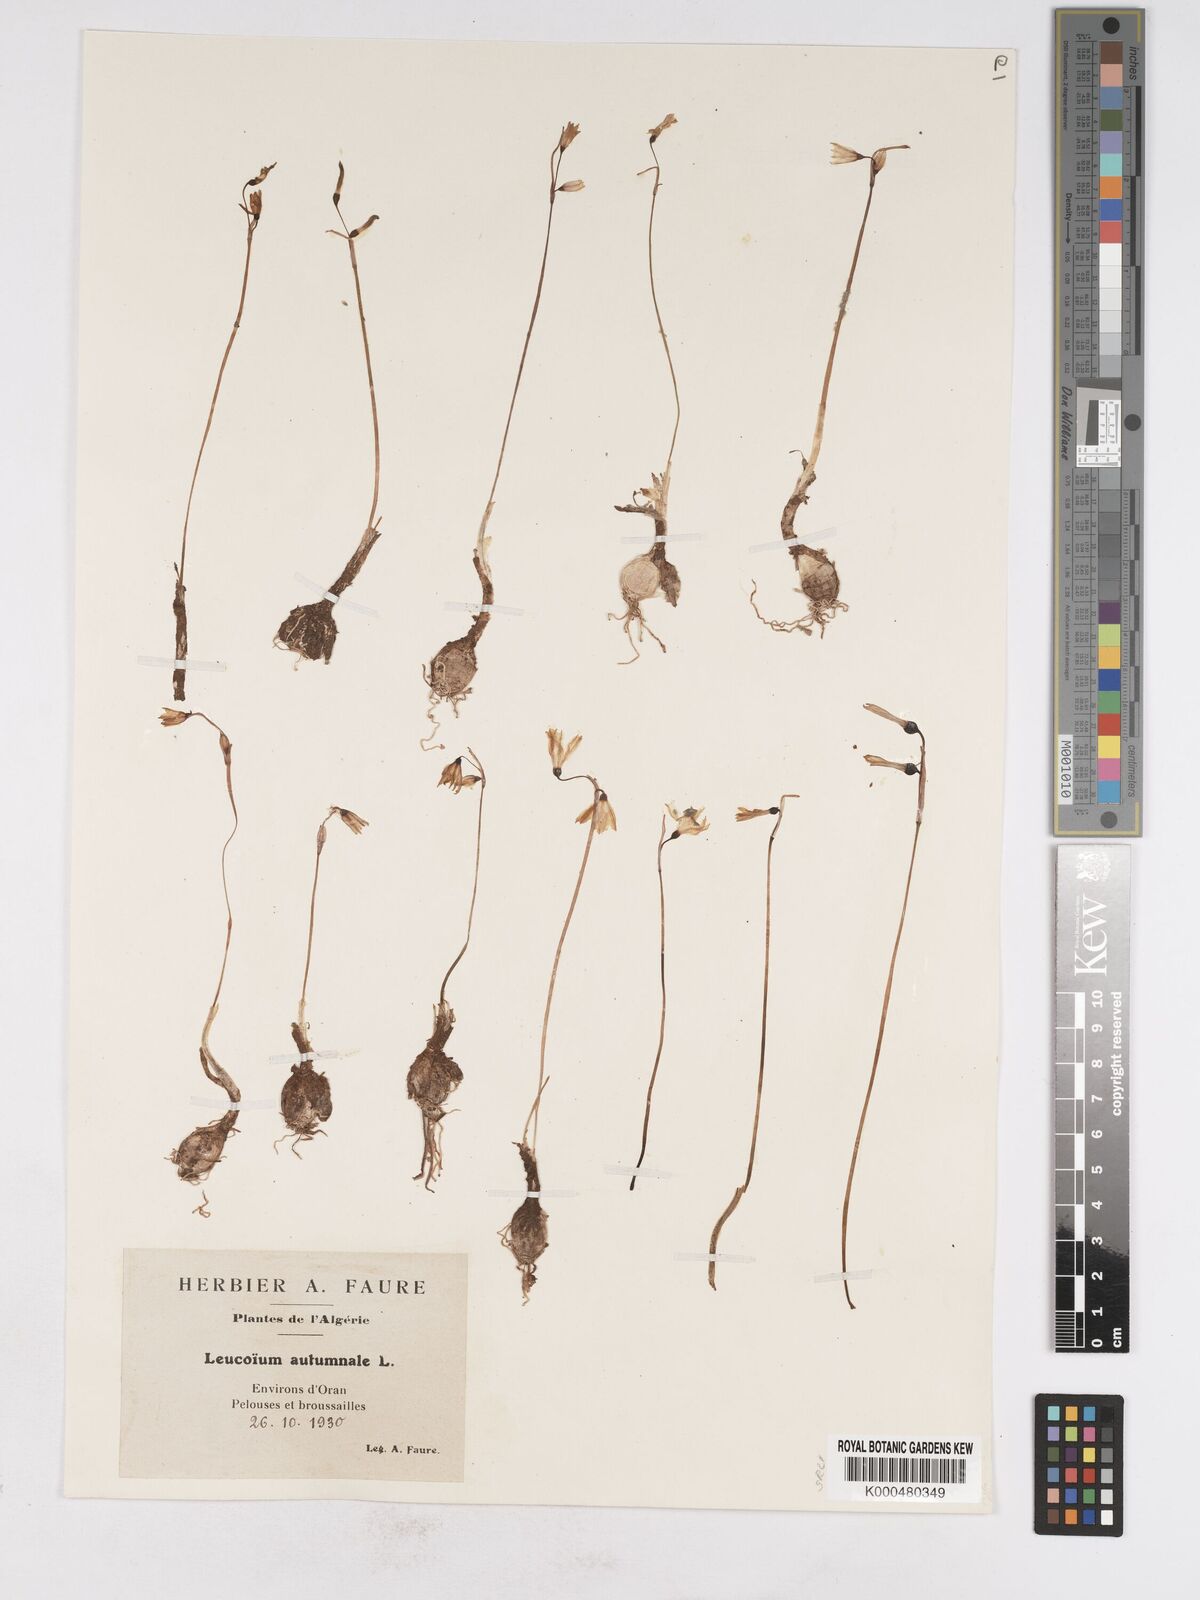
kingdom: Plantae
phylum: Tracheophyta
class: Liliopsida
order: Asparagales
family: Amaryllidaceae
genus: Acis
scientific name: Acis autumnalis
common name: Autumn snowflake
